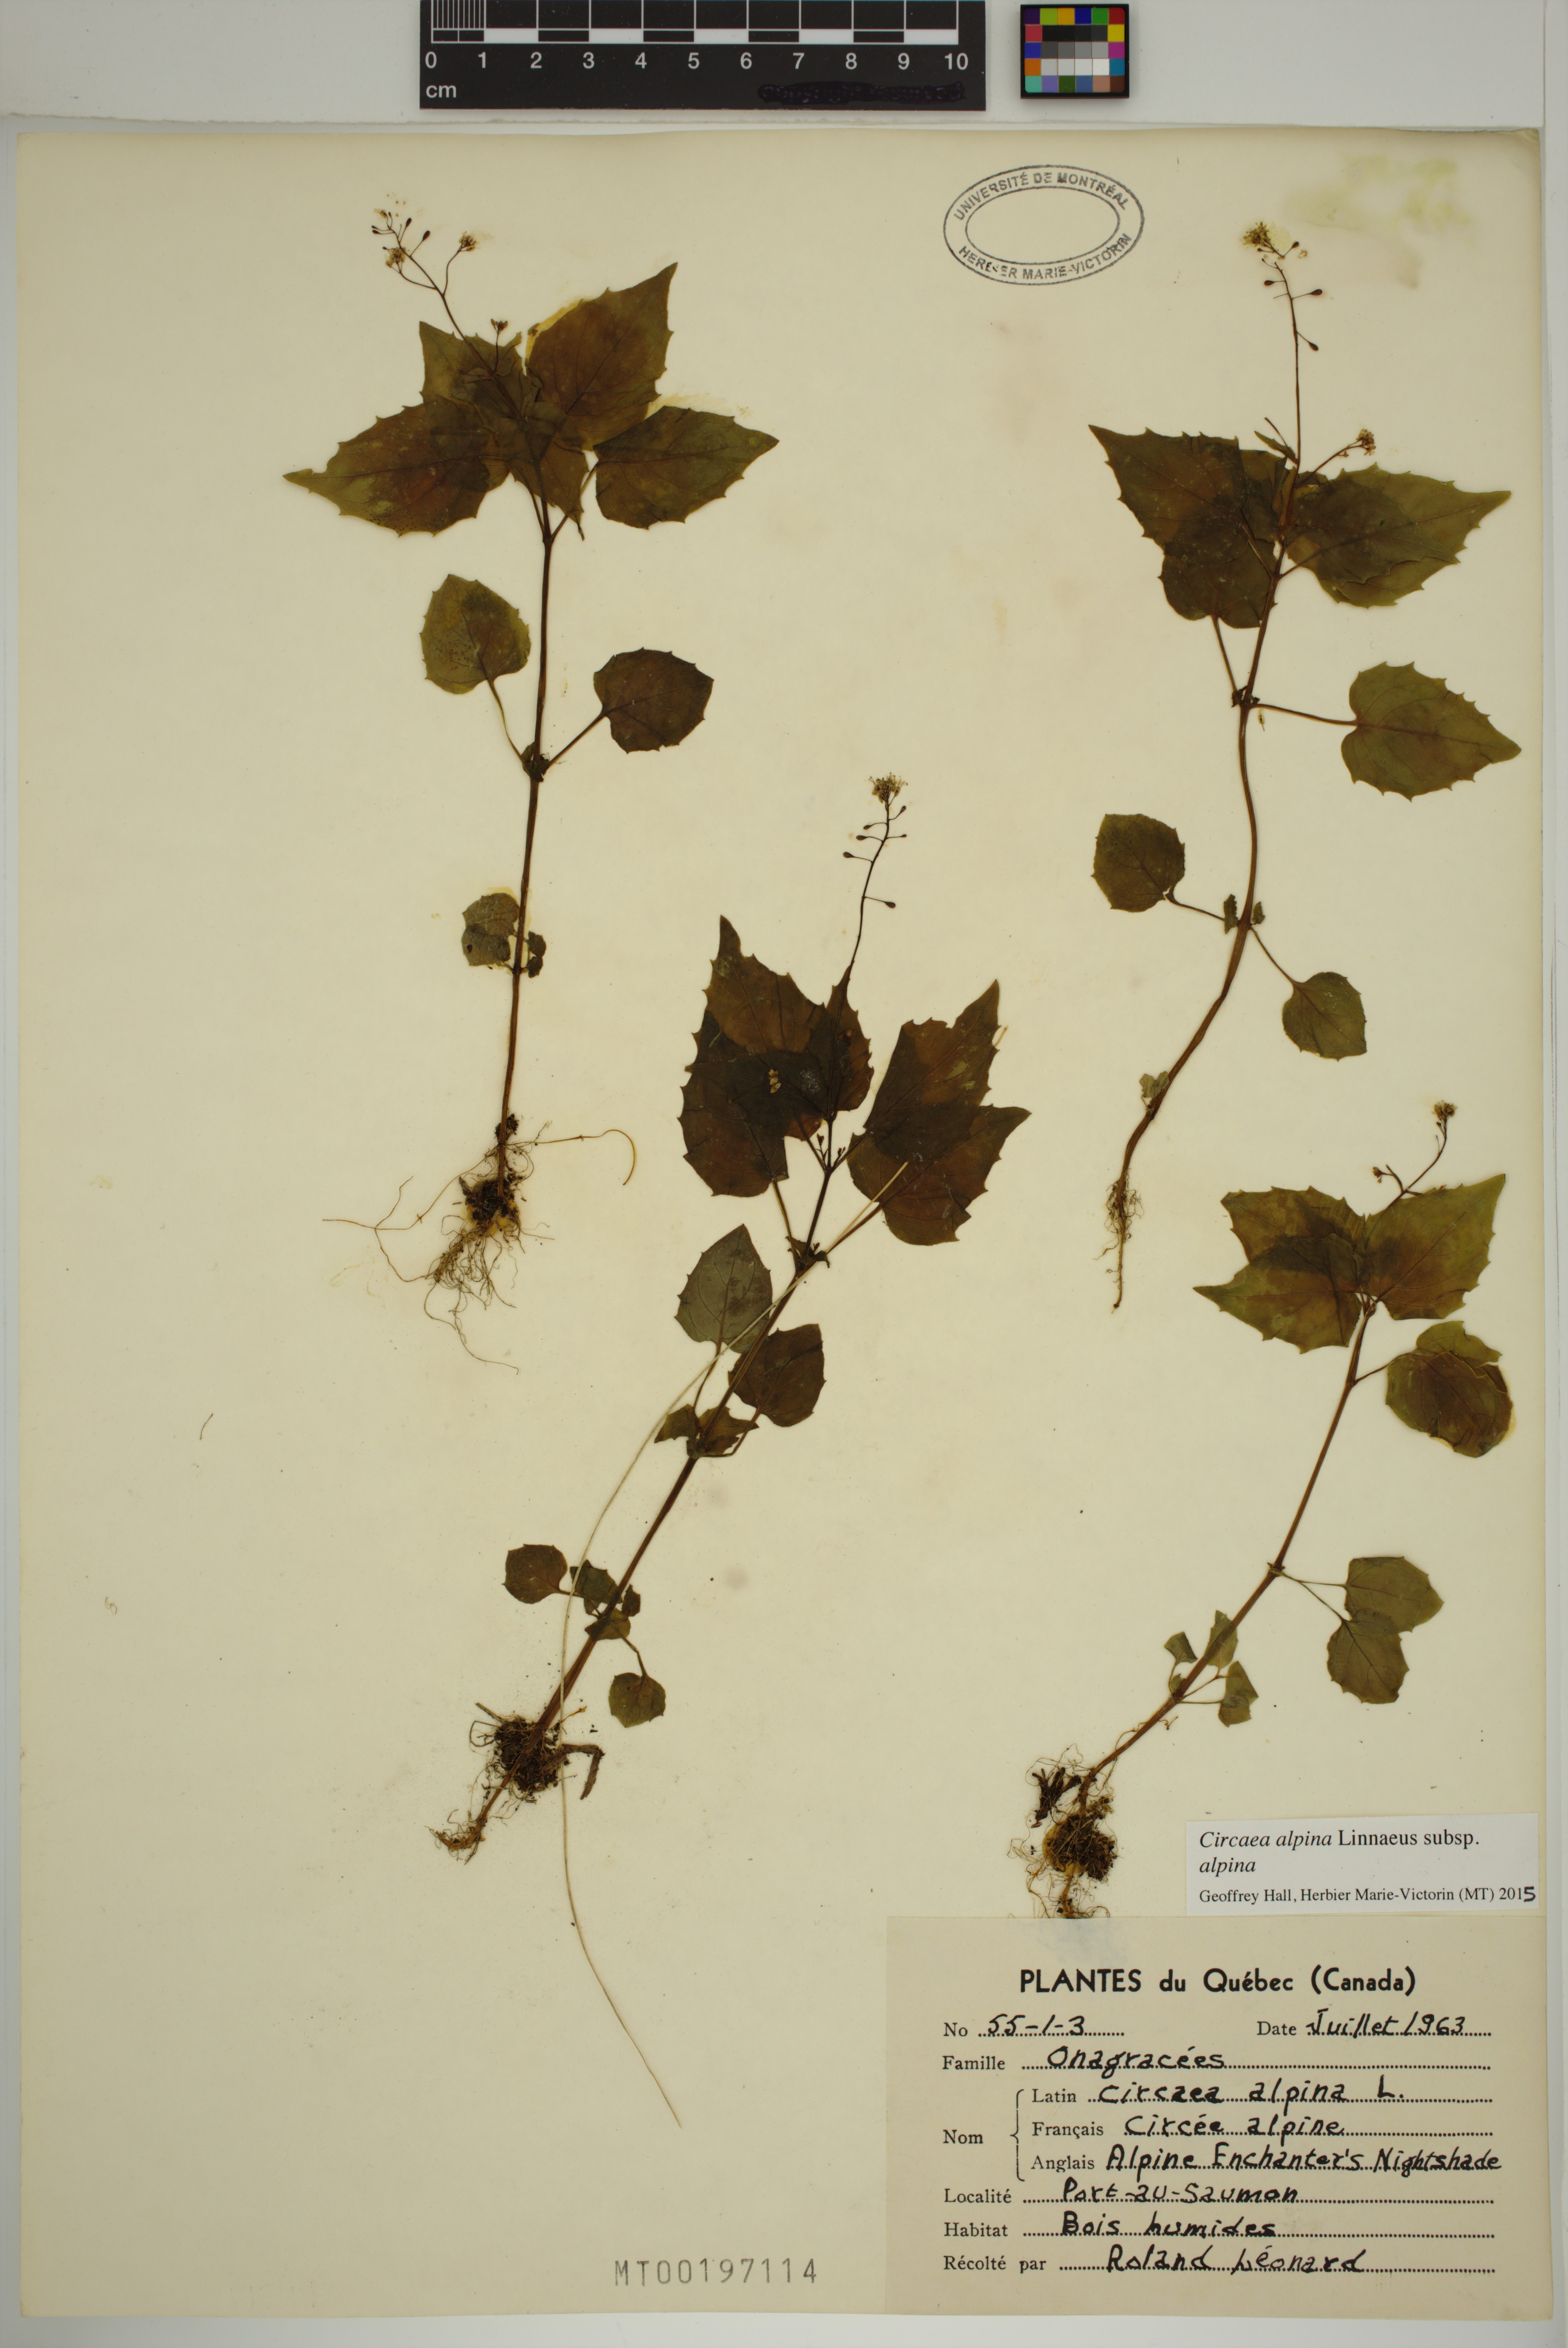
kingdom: Plantae
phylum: Tracheophyta
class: Magnoliopsida
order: Myrtales
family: Onagraceae
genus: Circaea
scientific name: Circaea alpina
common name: Alpine enchanter's-nightshade
